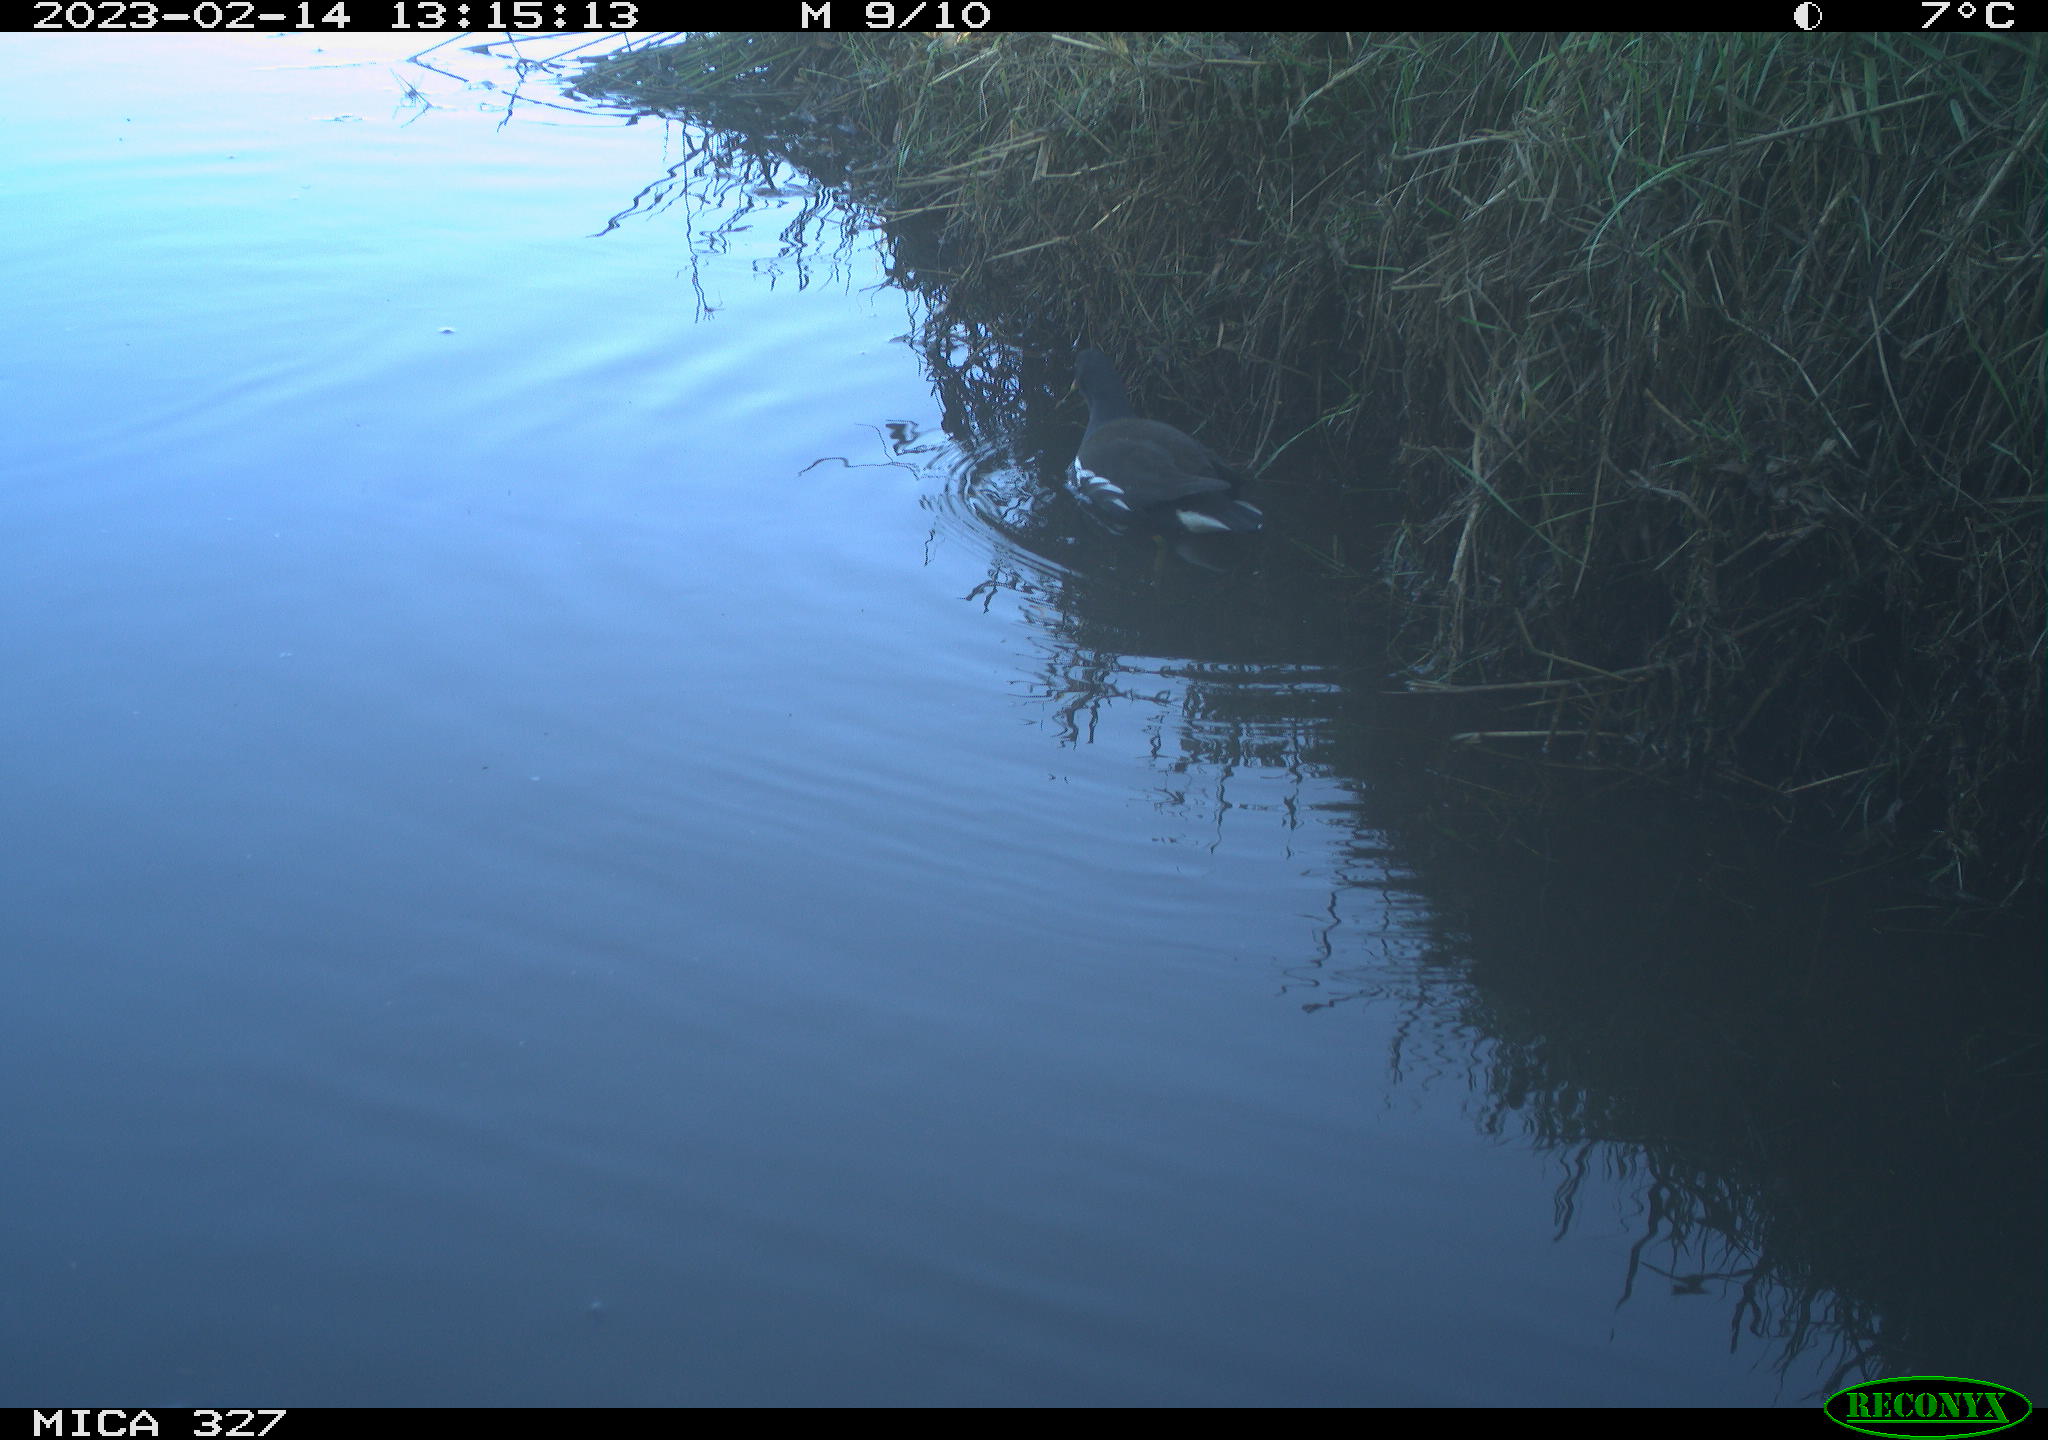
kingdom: Animalia
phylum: Chordata
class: Aves
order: Gruiformes
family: Rallidae
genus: Gallinula
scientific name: Gallinula chloropus
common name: Common moorhen
